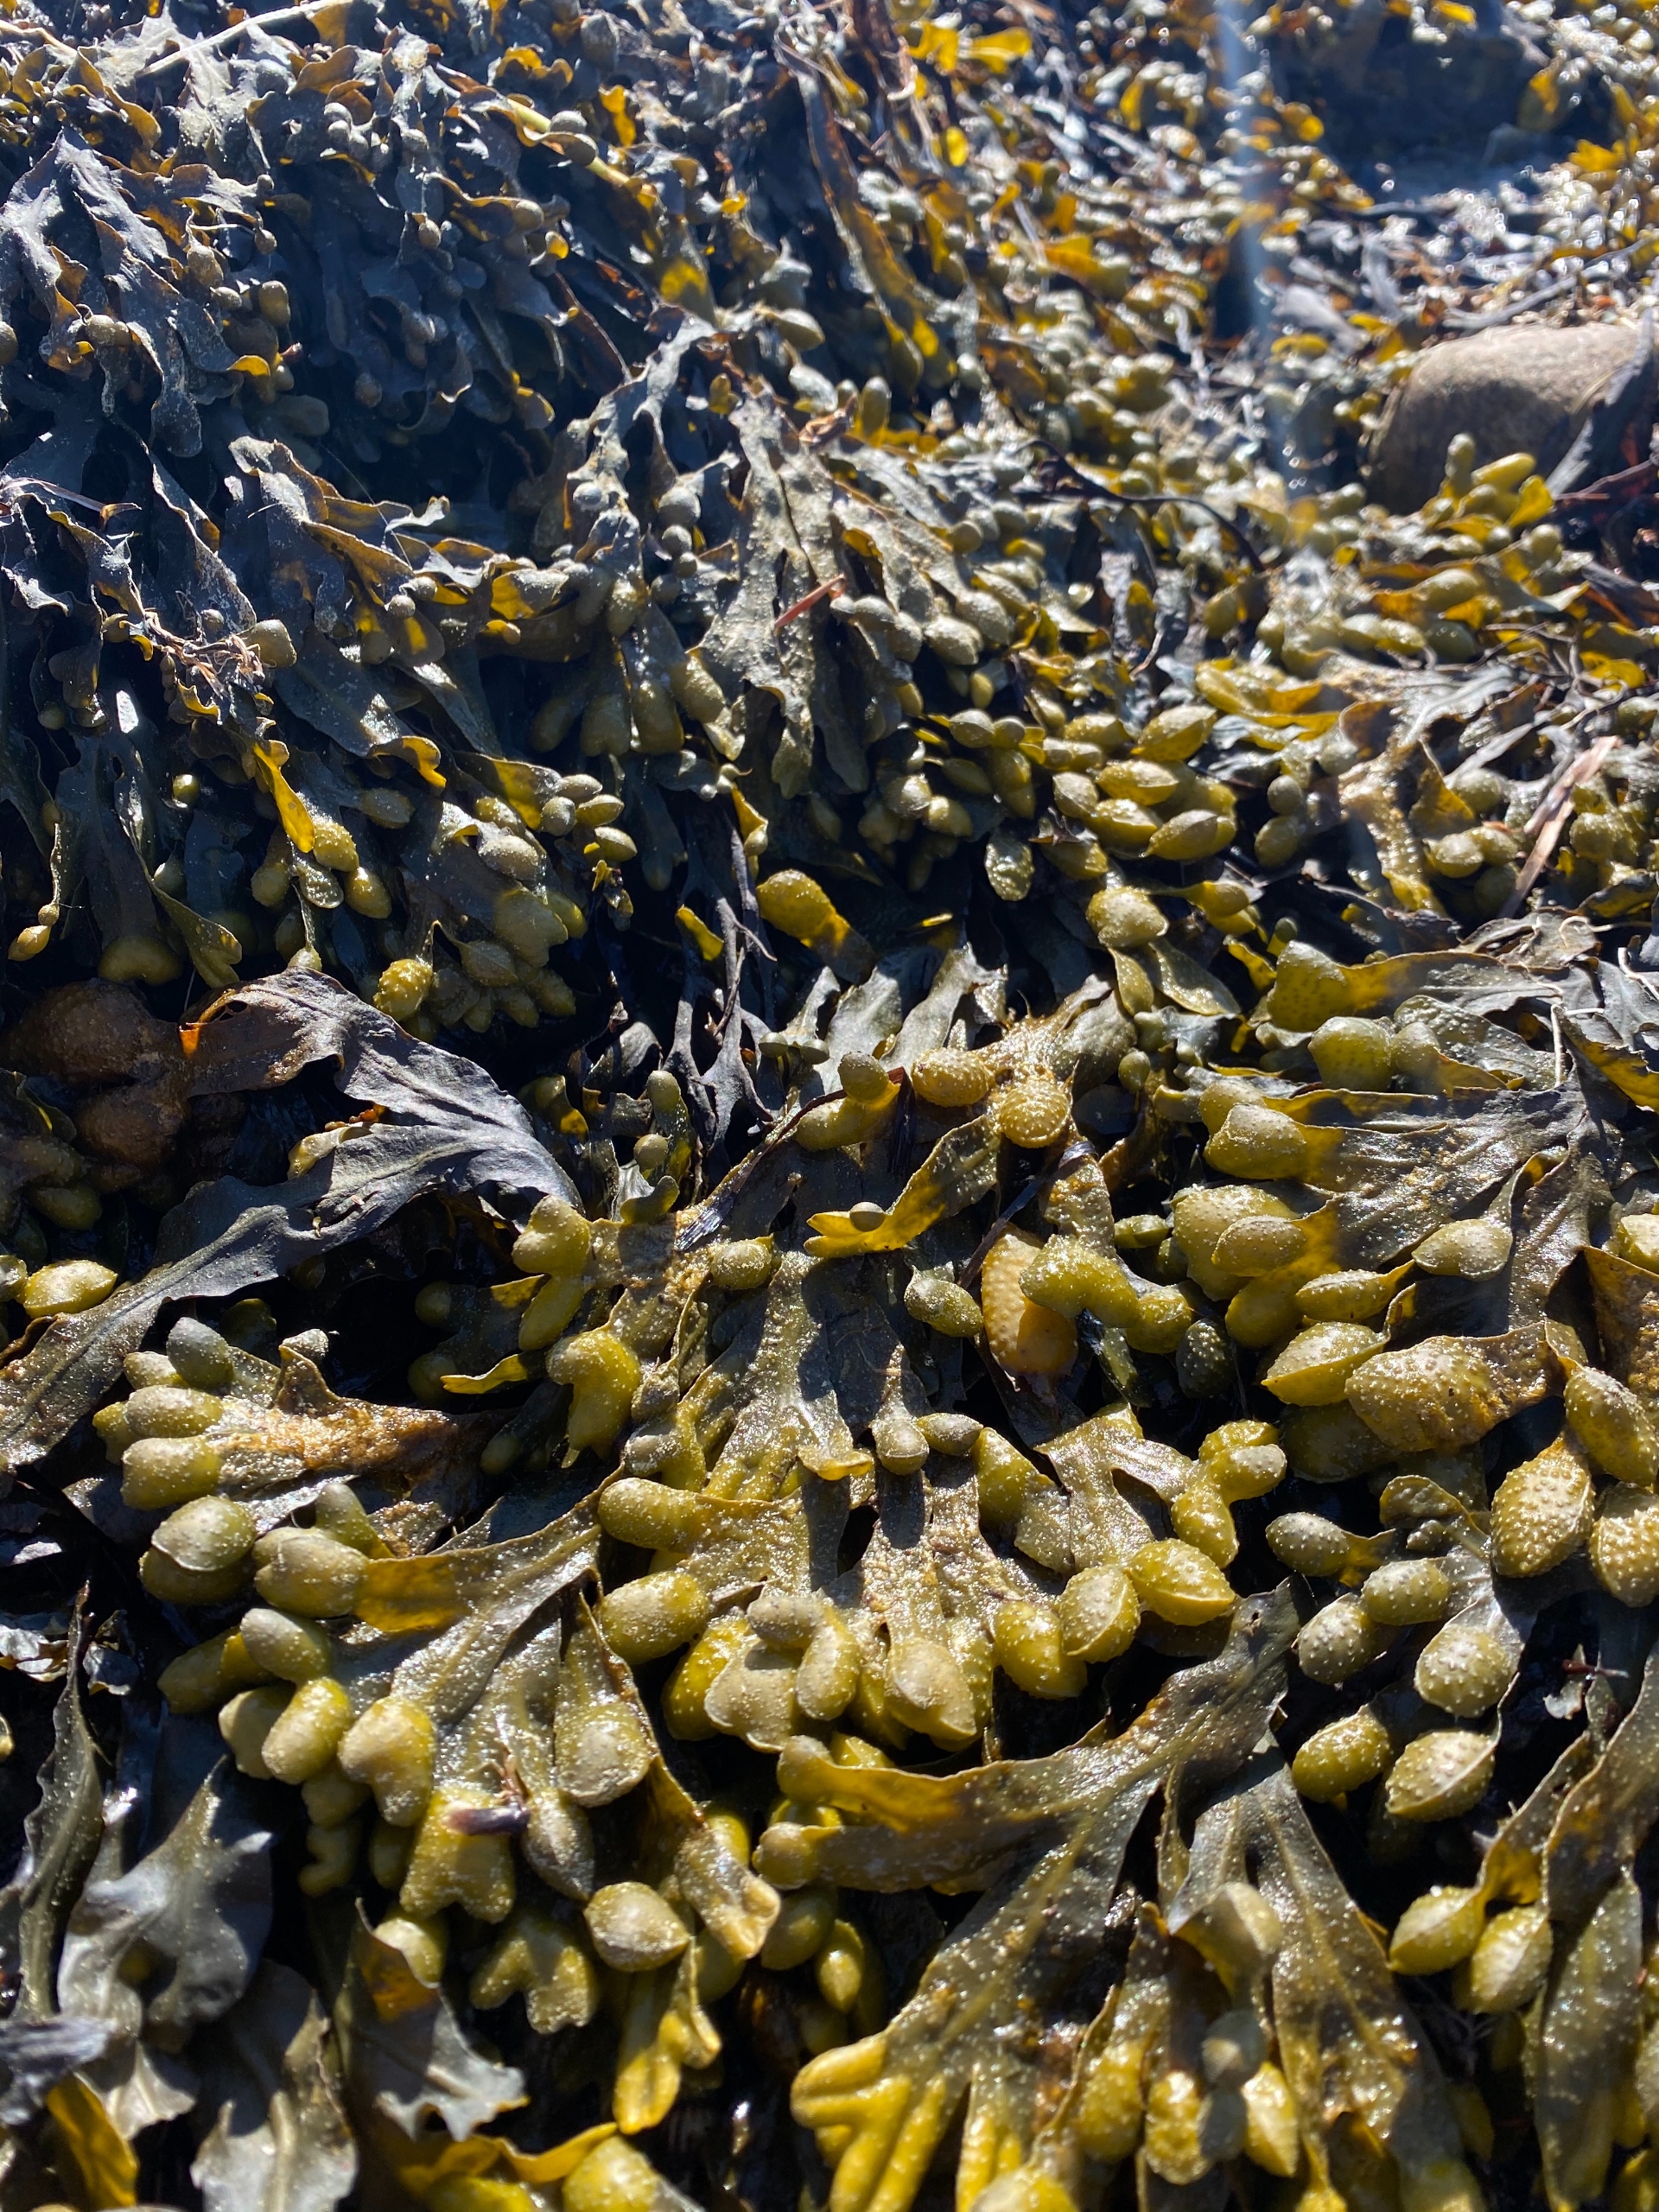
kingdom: Chromista
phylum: Ochrophyta
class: Phaeophyceae
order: Fucales
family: Fucaceae
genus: Fucus
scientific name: Fucus spiralis
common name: Lav klørtang
